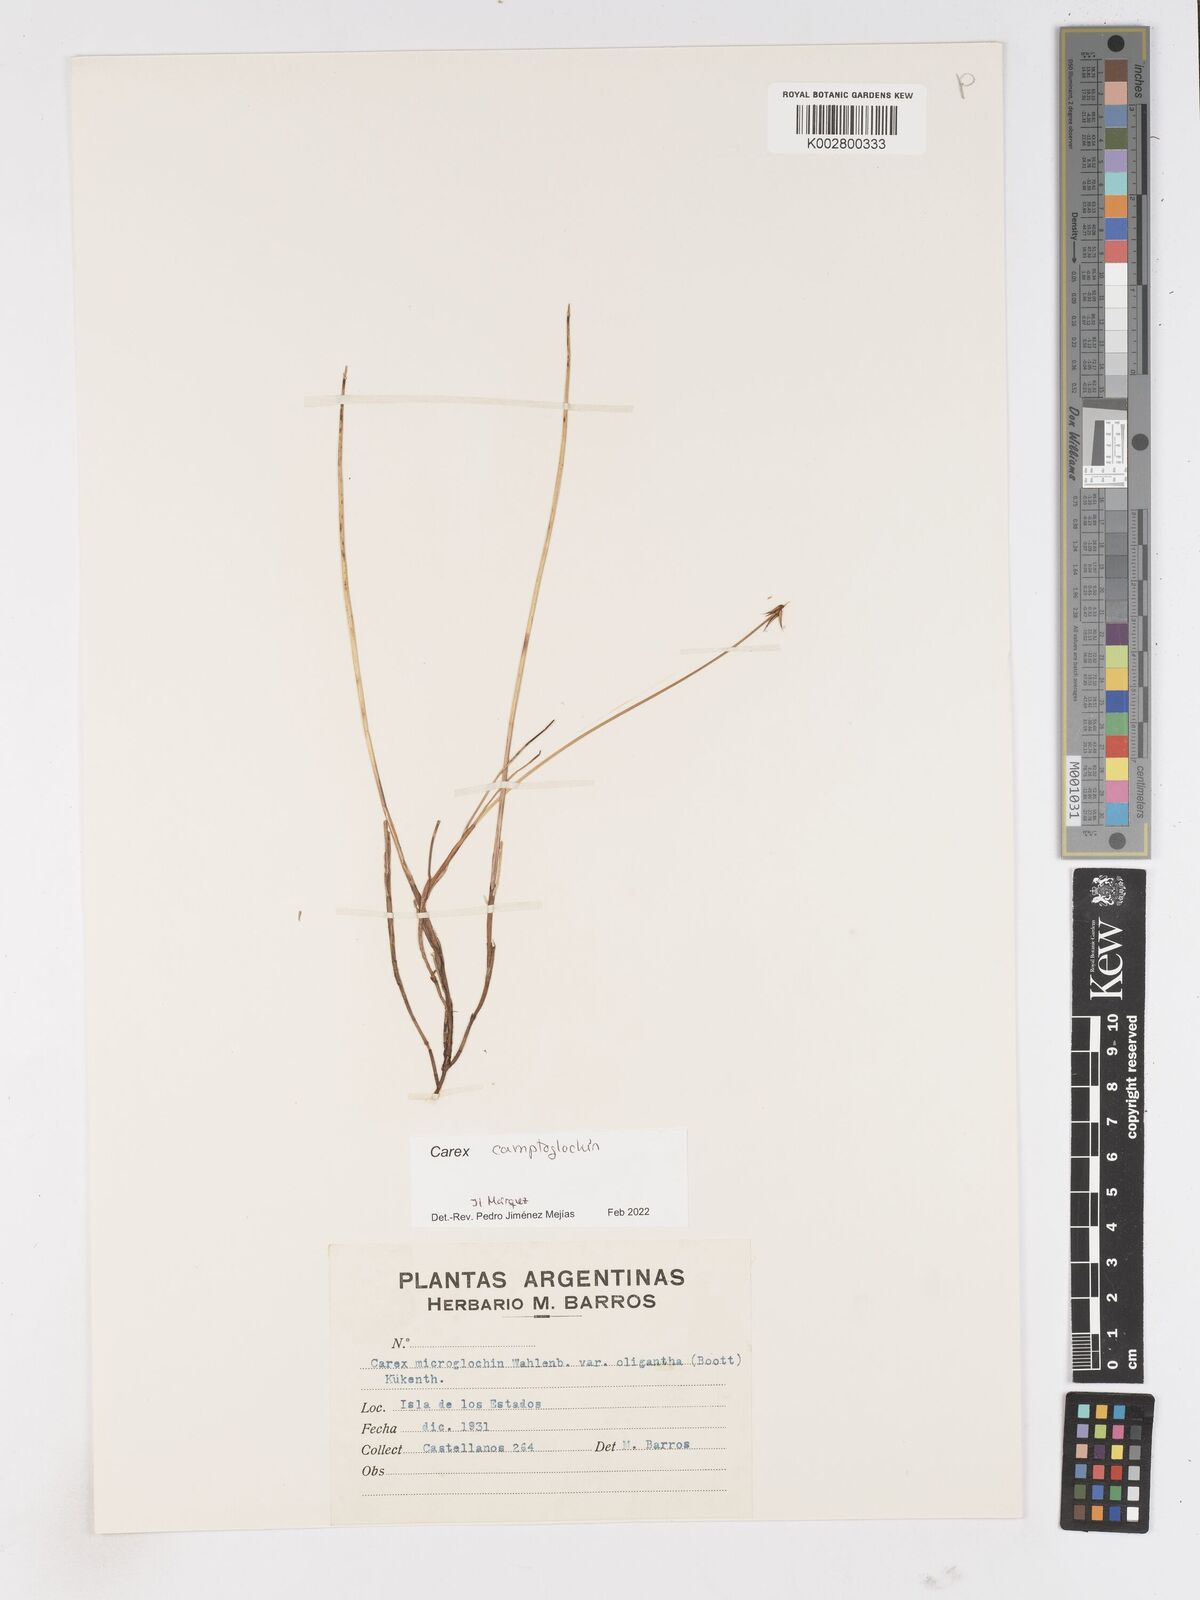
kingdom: Plantae
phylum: Tracheophyta
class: Liliopsida
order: Poales
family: Cyperaceae
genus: Carex
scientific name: Carex camptoglochin
